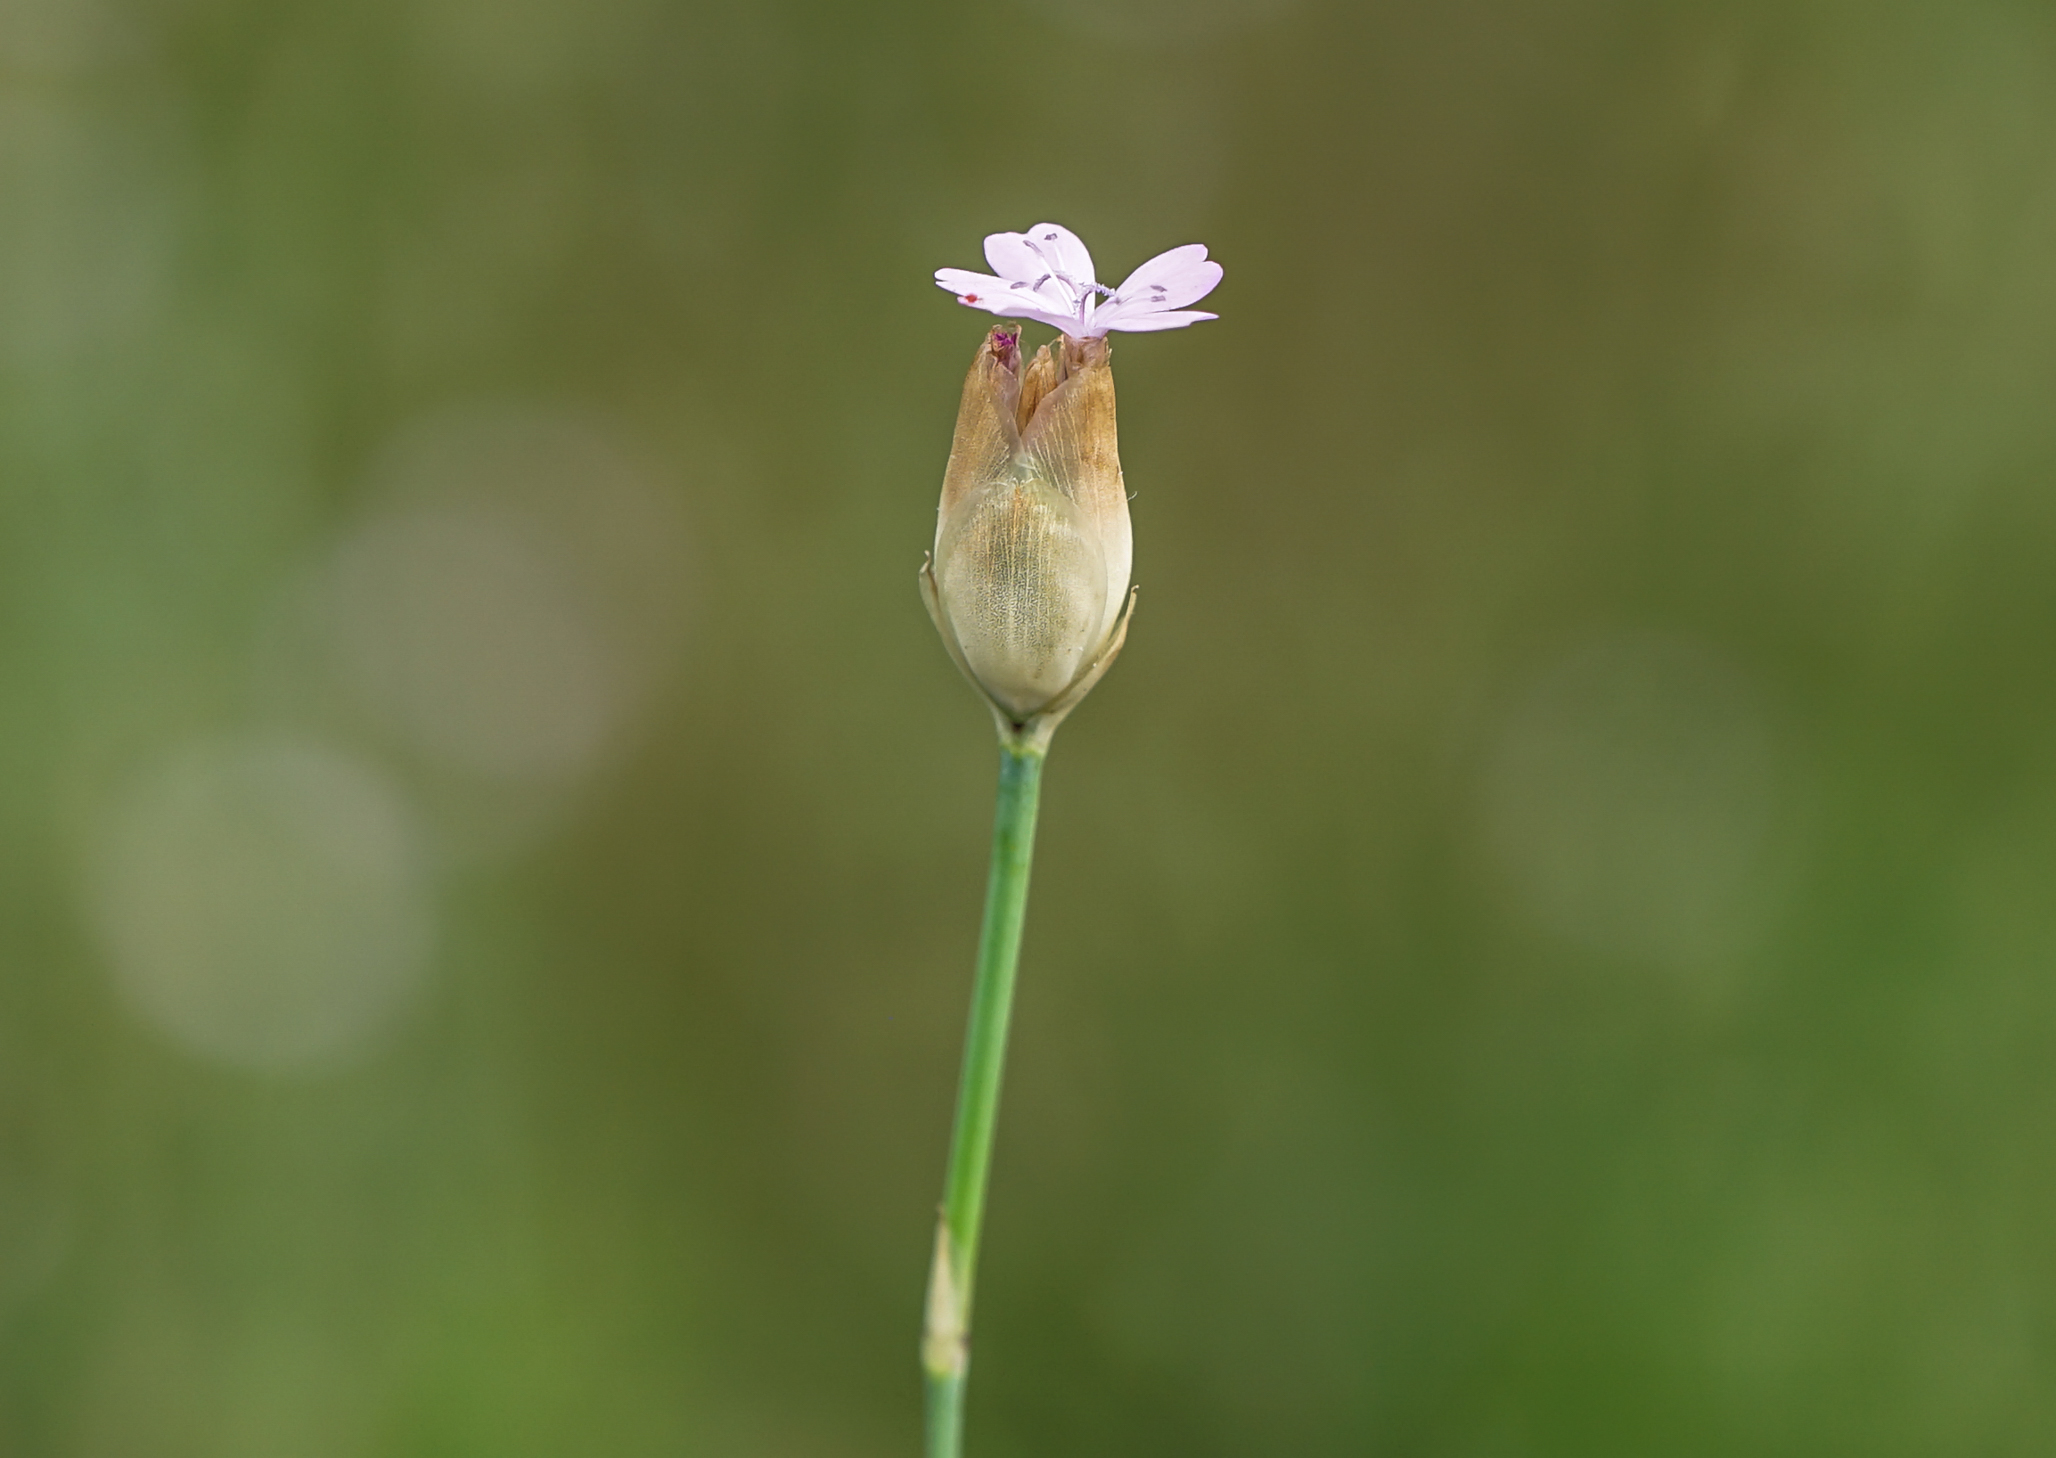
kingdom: Plantae
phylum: Tracheophyta
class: Magnoliopsida
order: Caryophyllales
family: Caryophyllaceae
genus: Petrorhagia
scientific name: Petrorhagia prolifera
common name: Proliferous pink
